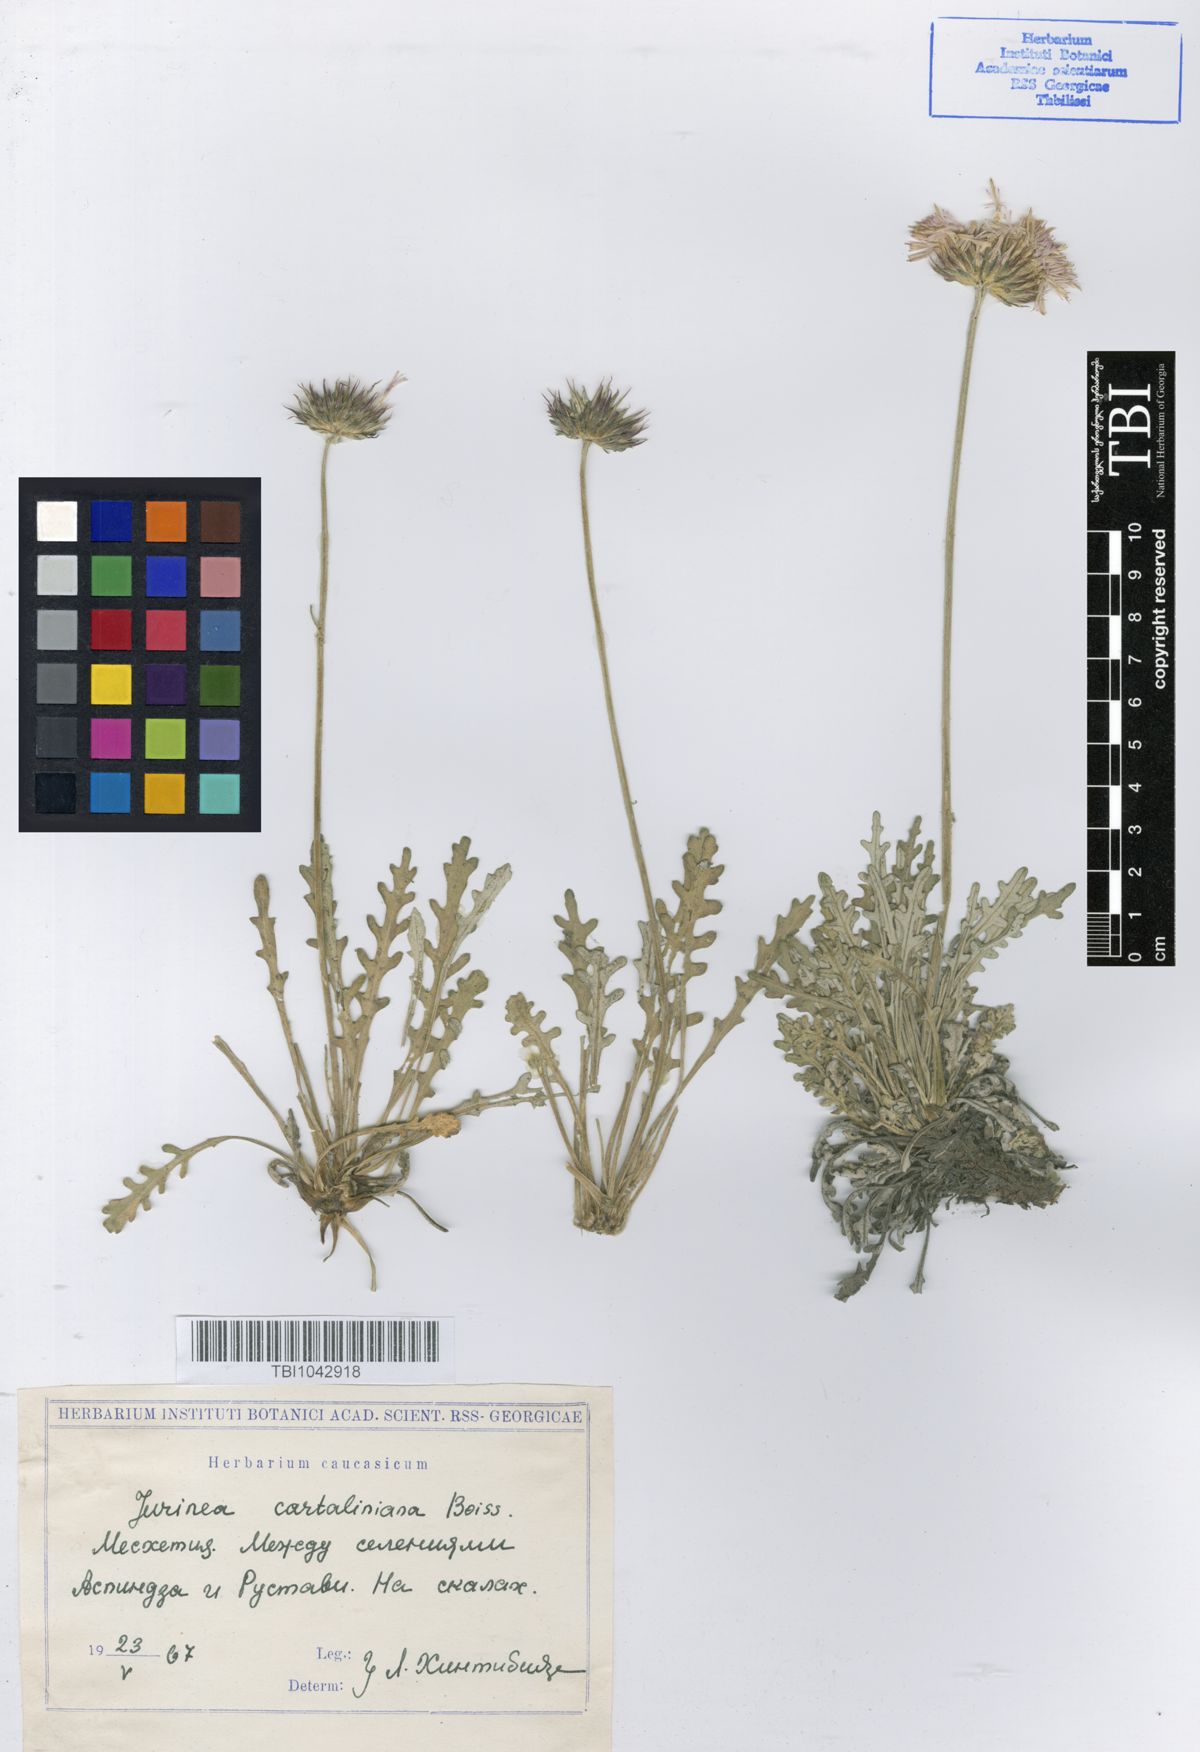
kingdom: Plantae
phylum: Tracheophyta
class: Magnoliopsida
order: Asterales
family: Asteraceae
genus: Jurinea
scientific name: Jurinea cartaliniana
